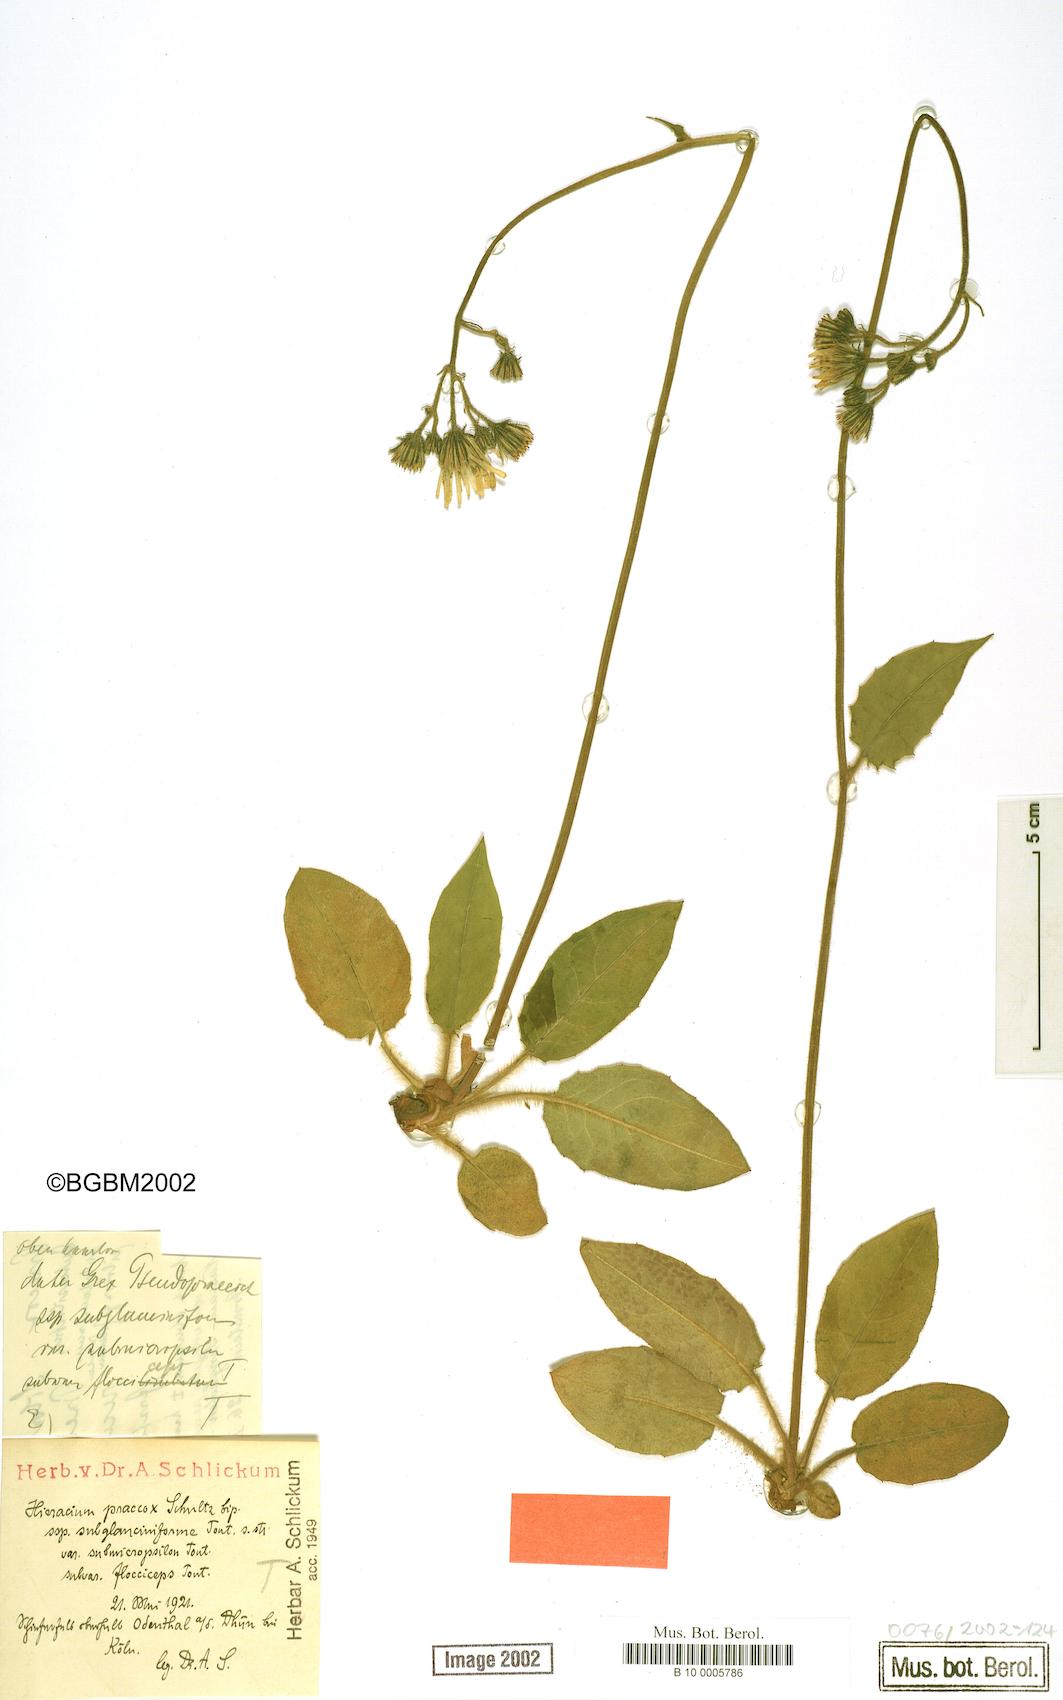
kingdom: Plantae
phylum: Tracheophyta
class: Magnoliopsida
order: Asterales
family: Asteraceae
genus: Hieracium
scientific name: Hieracium praecox
